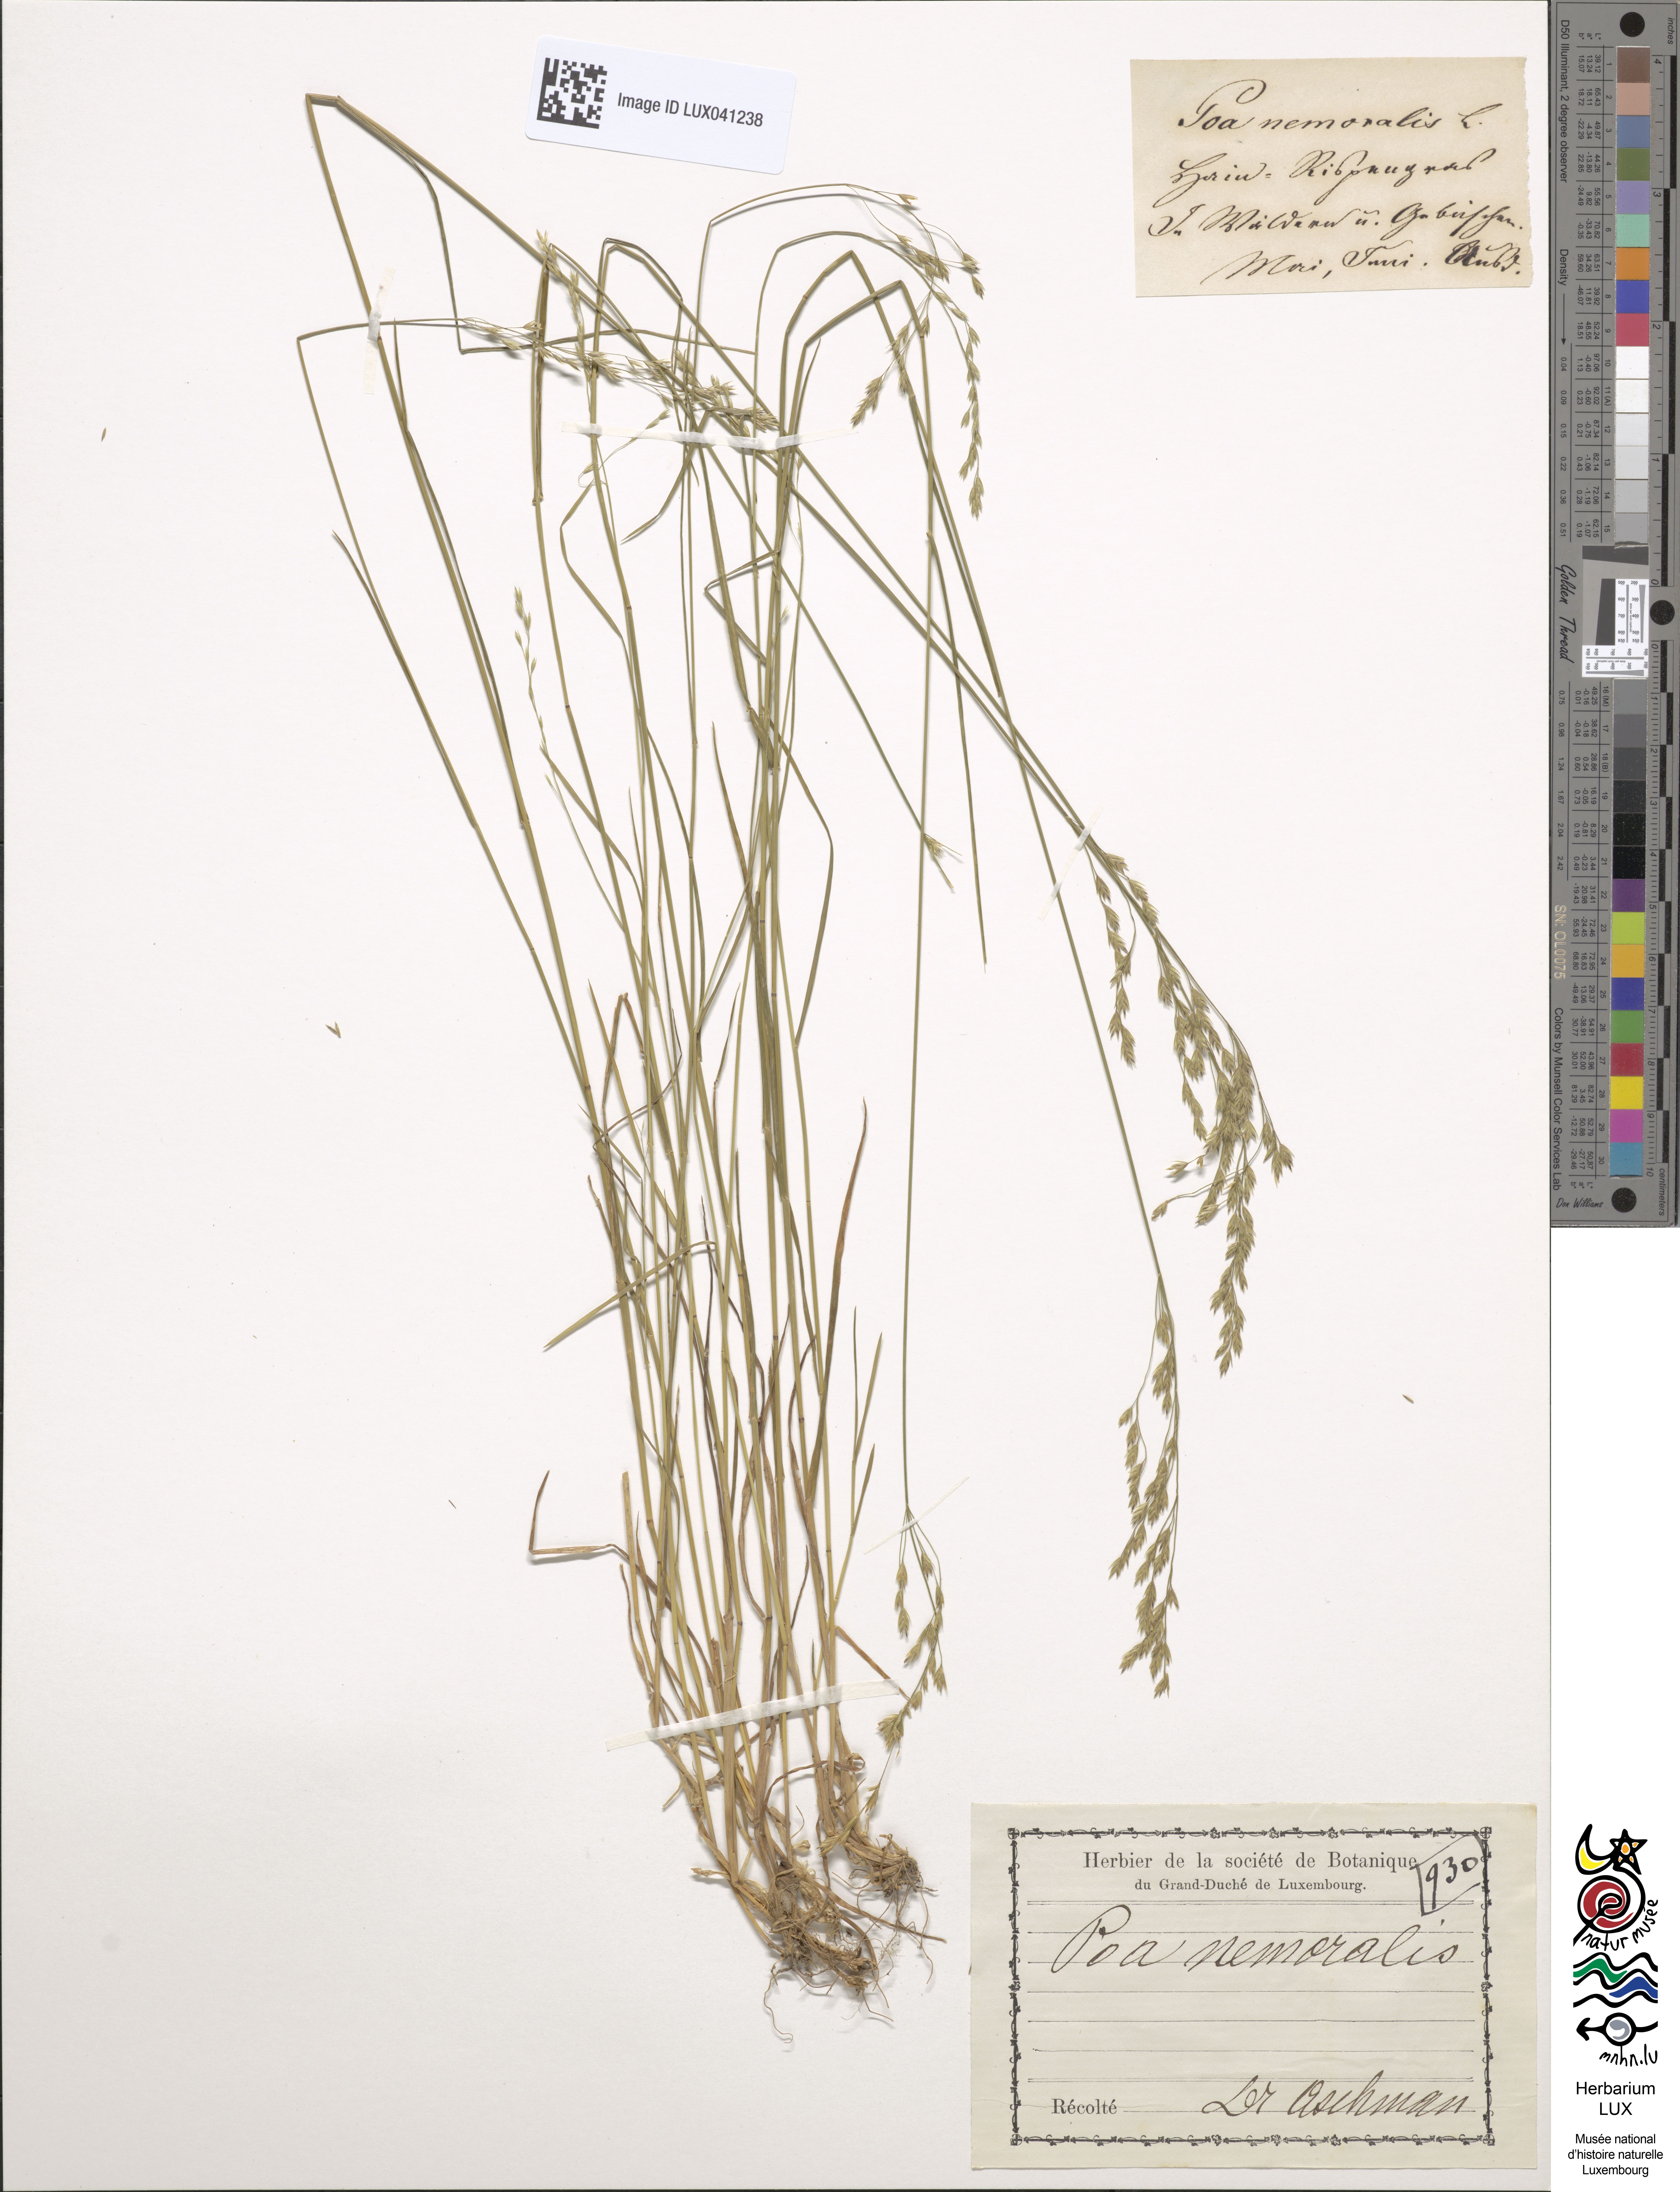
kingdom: Plantae
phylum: Tracheophyta
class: Liliopsida
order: Poales
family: Poaceae
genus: Poa
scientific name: Poa nemoralis
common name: Wood bluegrass
